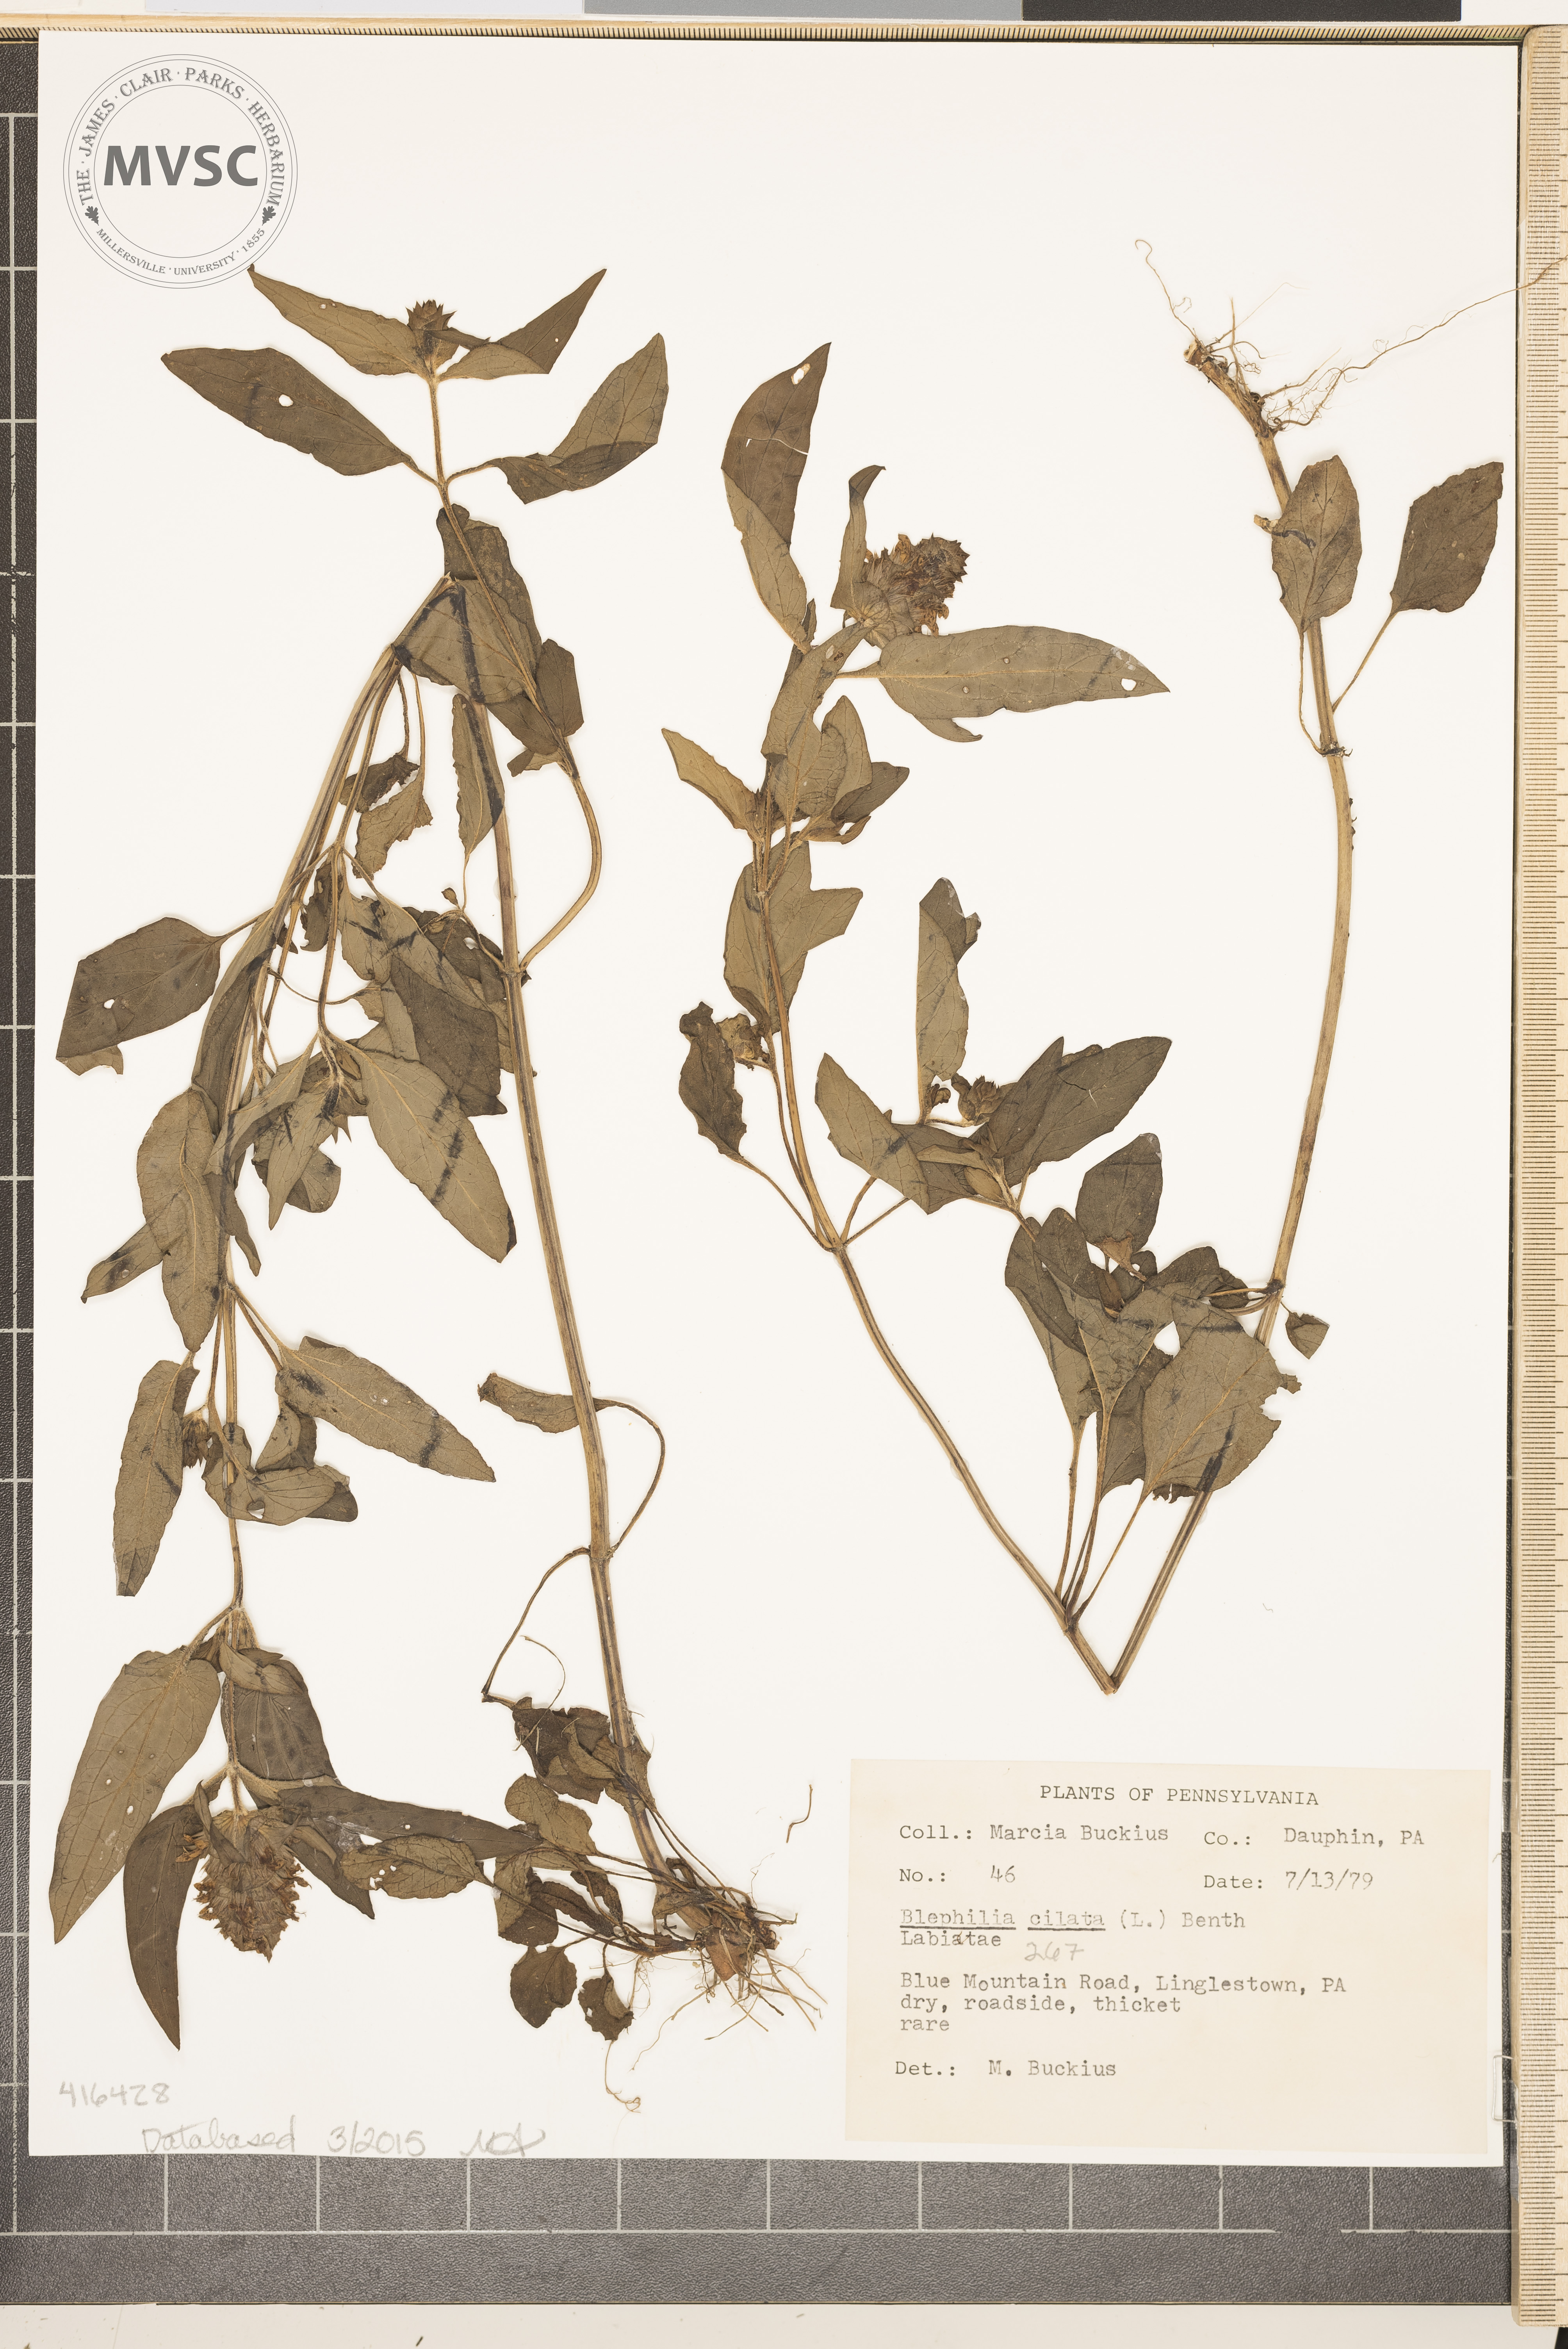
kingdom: Plantae
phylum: Tracheophyta
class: Magnoliopsida
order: Lamiales
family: Lamiaceae
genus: Blephilia
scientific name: Blephilia ciliata
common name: Downy wood mint
